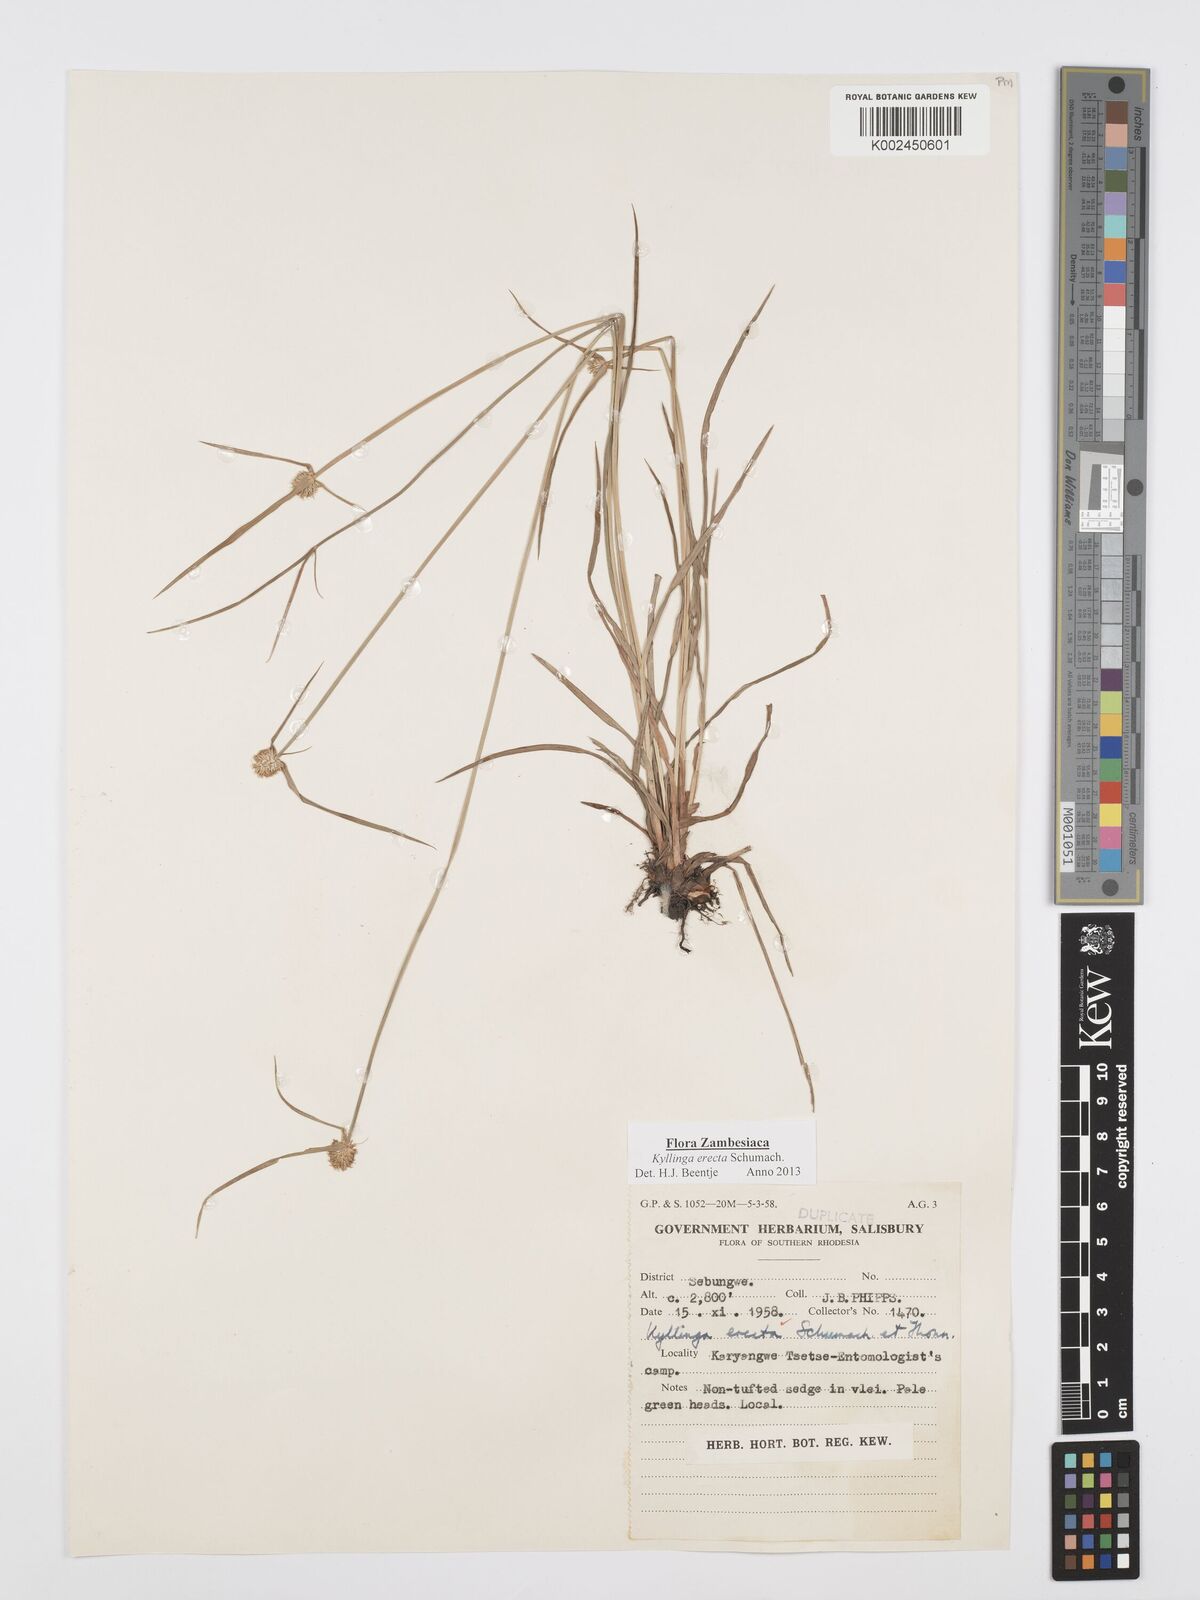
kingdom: Plantae
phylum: Tracheophyta
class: Liliopsida
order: Poales
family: Cyperaceae
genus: Cyperus
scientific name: Cyperus erectus
